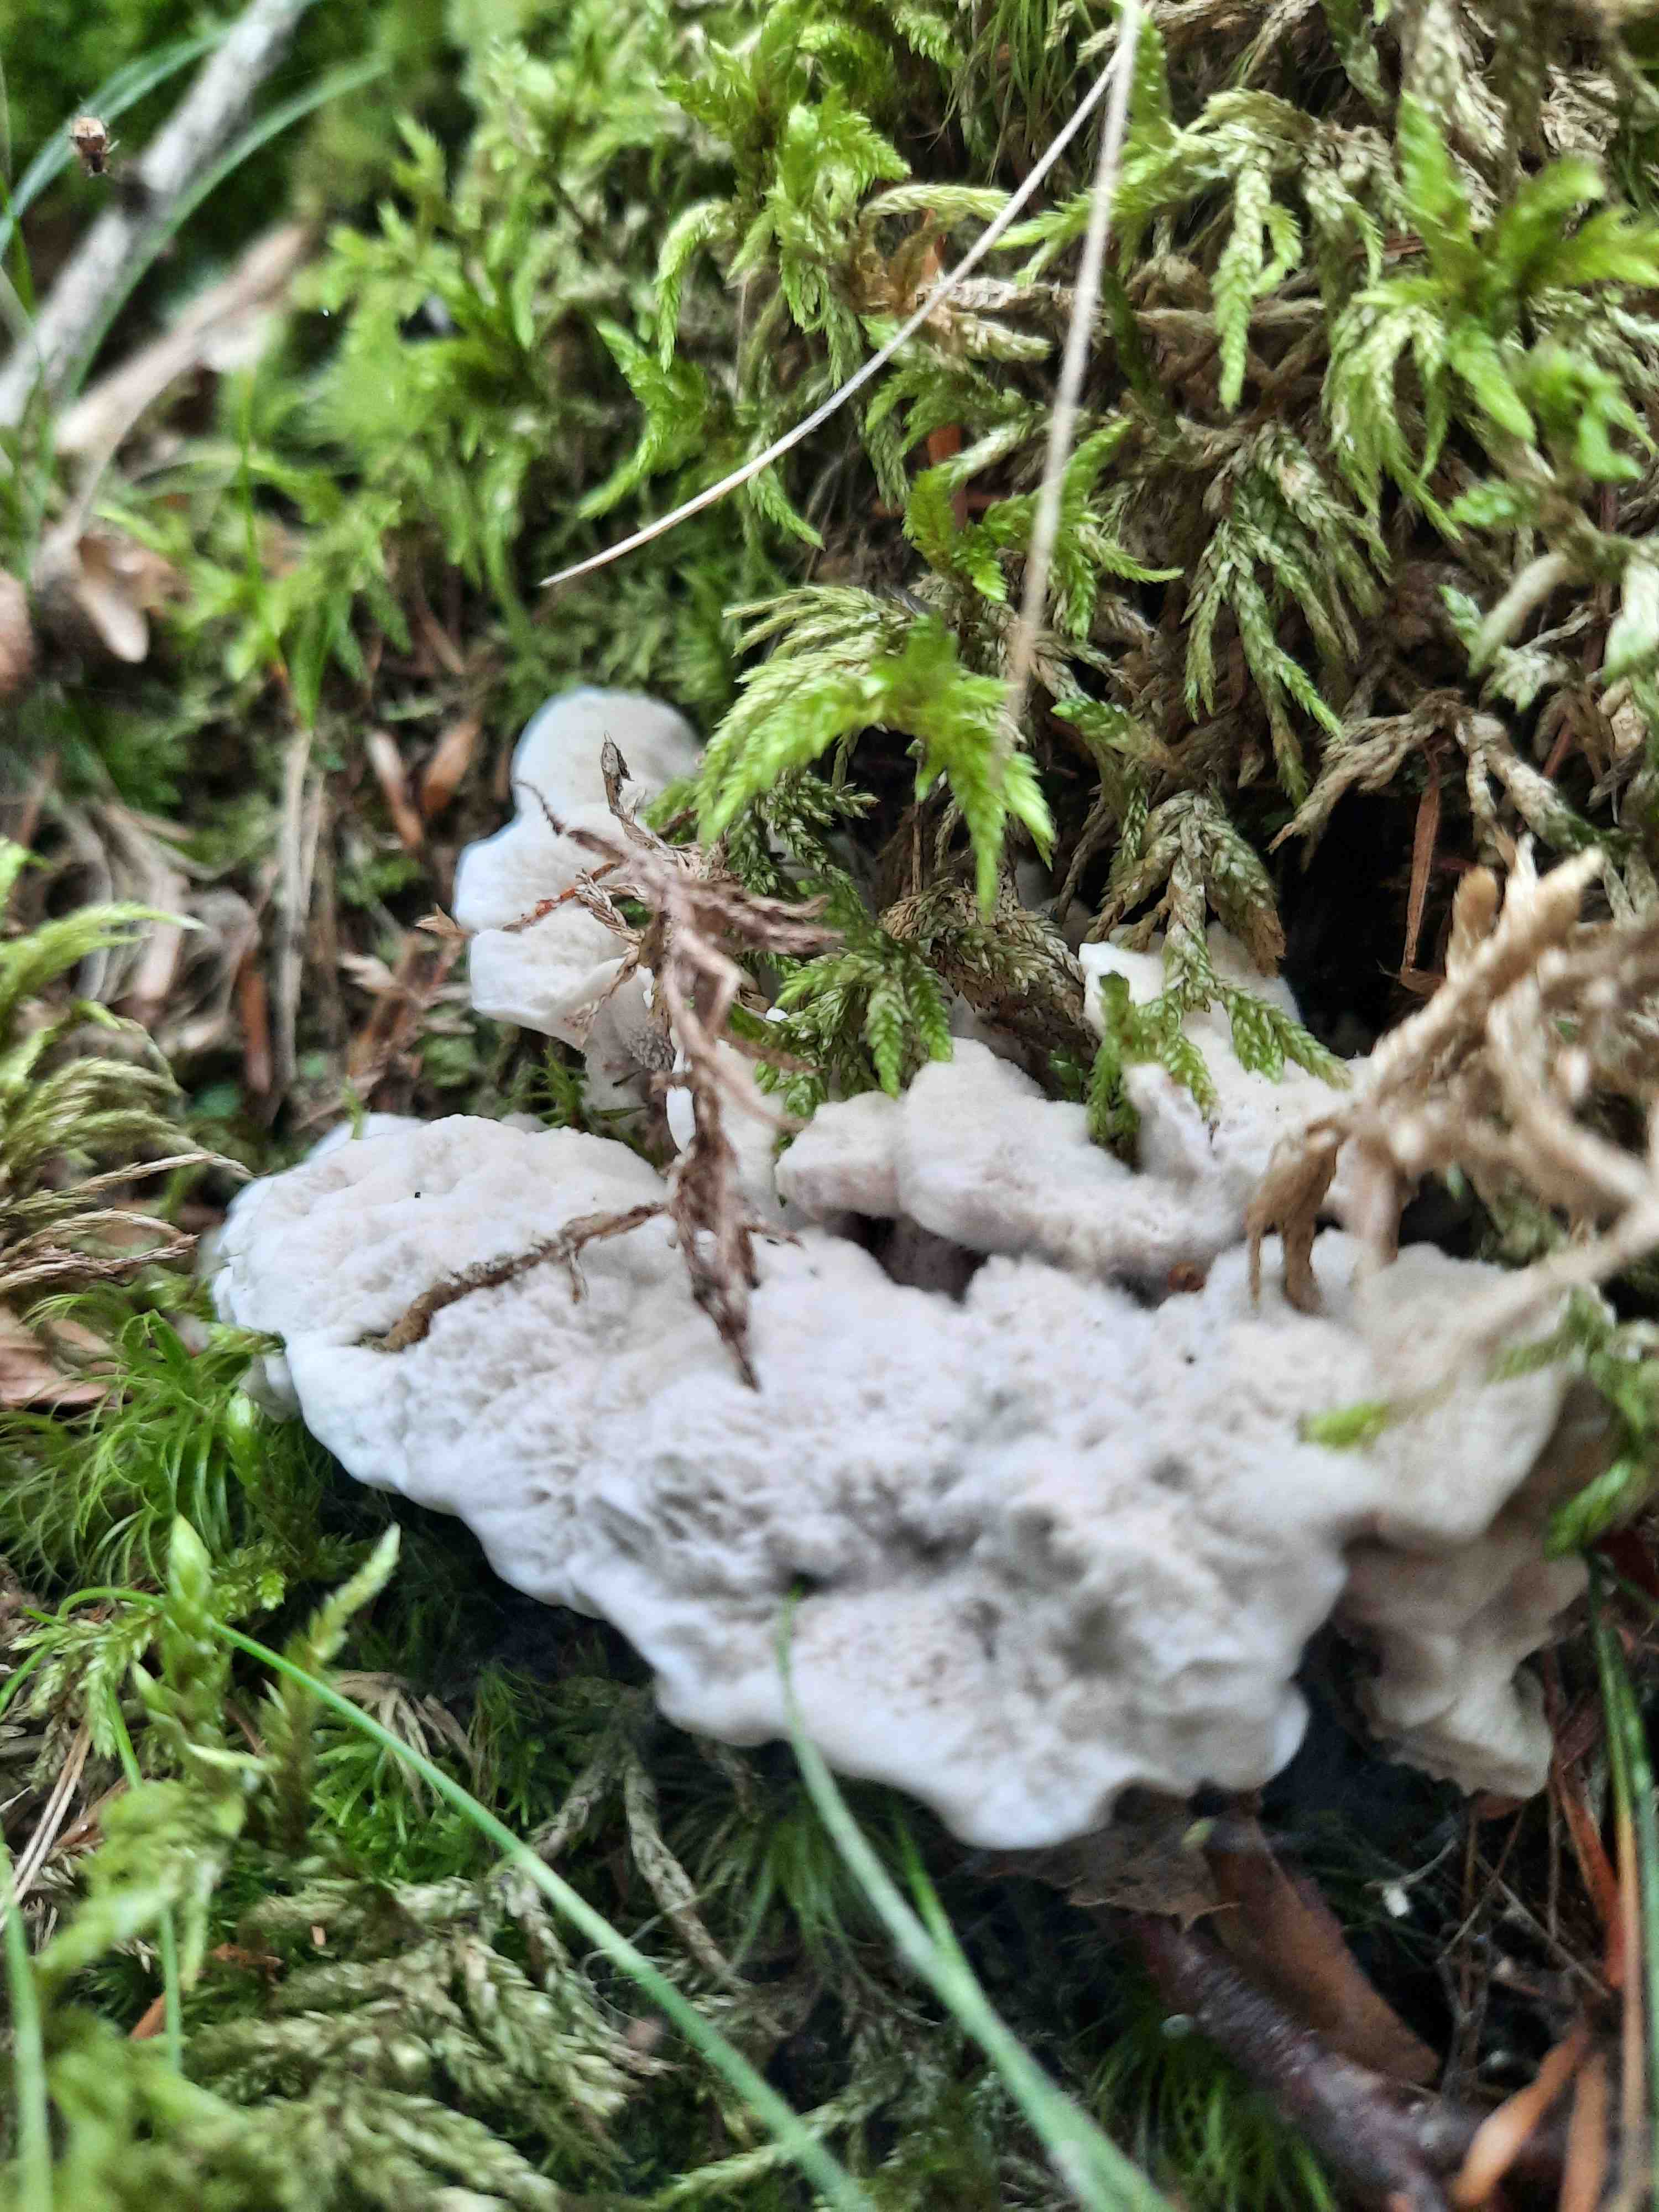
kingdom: Fungi
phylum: Basidiomycota
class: Agaricomycetes
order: Thelephorales
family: Thelephoraceae
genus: Phellodon
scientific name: Phellodon confluens
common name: pjaltet duftpigsvamp
